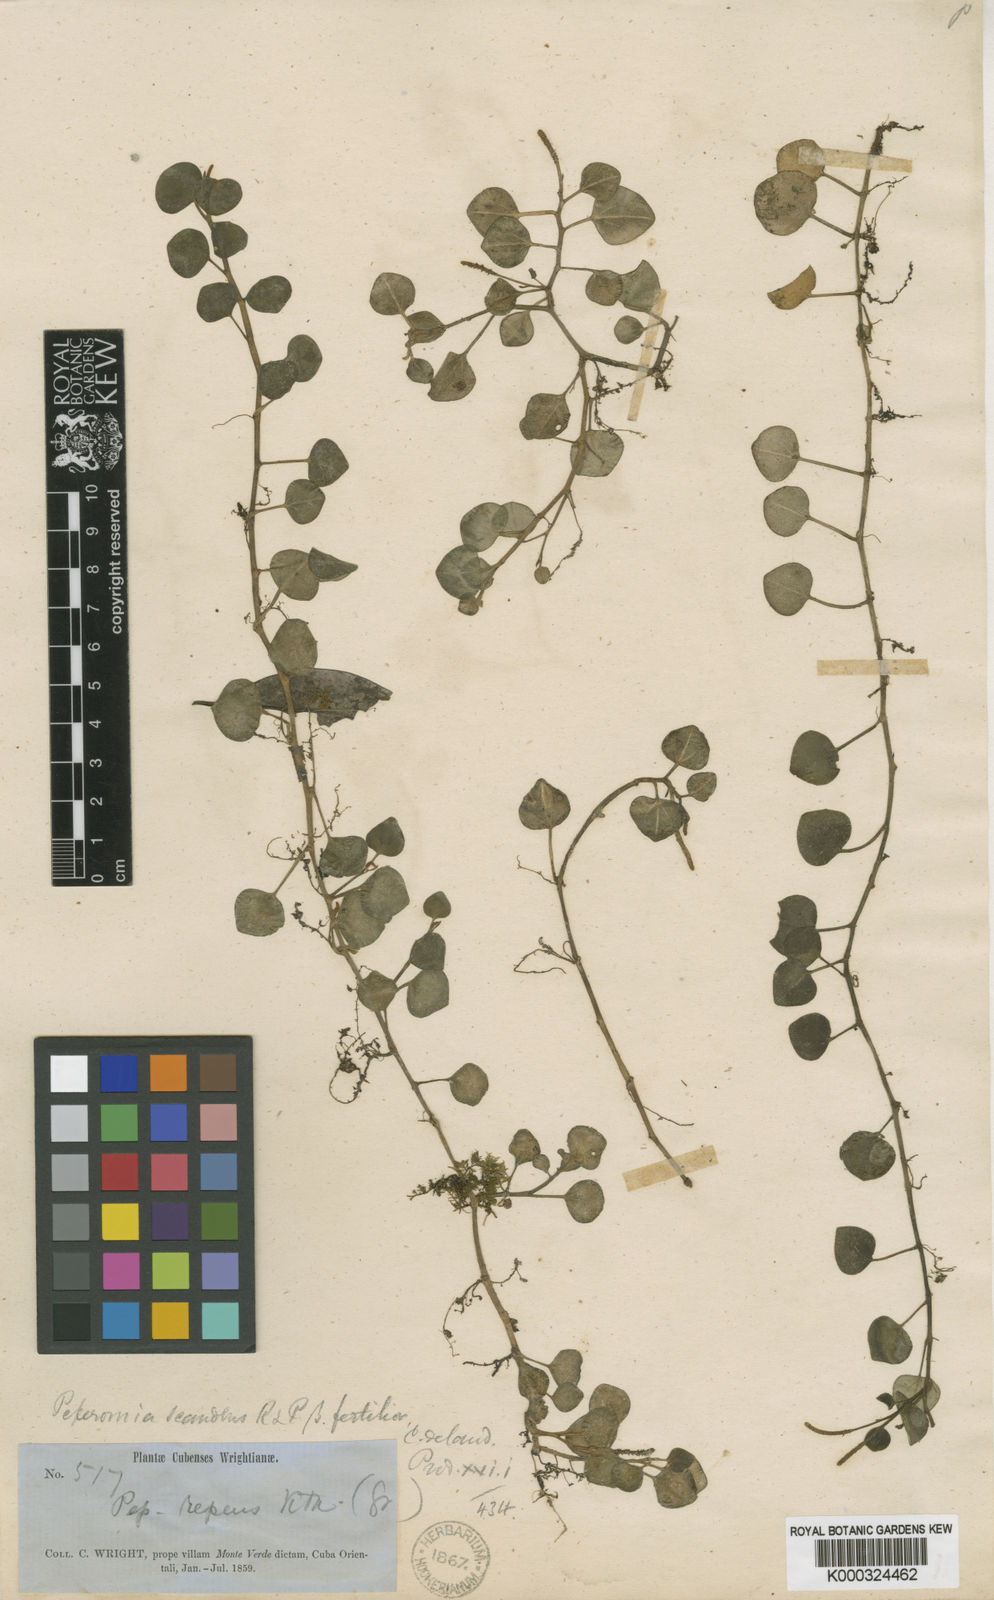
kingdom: Plantae
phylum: Tracheophyta
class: Magnoliopsida
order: Piperales
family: Piperaceae
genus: Peperomia
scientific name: Peperomia serpens
